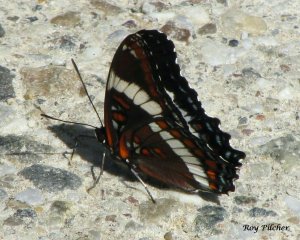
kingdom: Animalia
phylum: Arthropoda
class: Insecta
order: Lepidoptera
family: Nymphalidae
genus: Limenitis
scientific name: Limenitis arthemis
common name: Red-spotted Admiral
